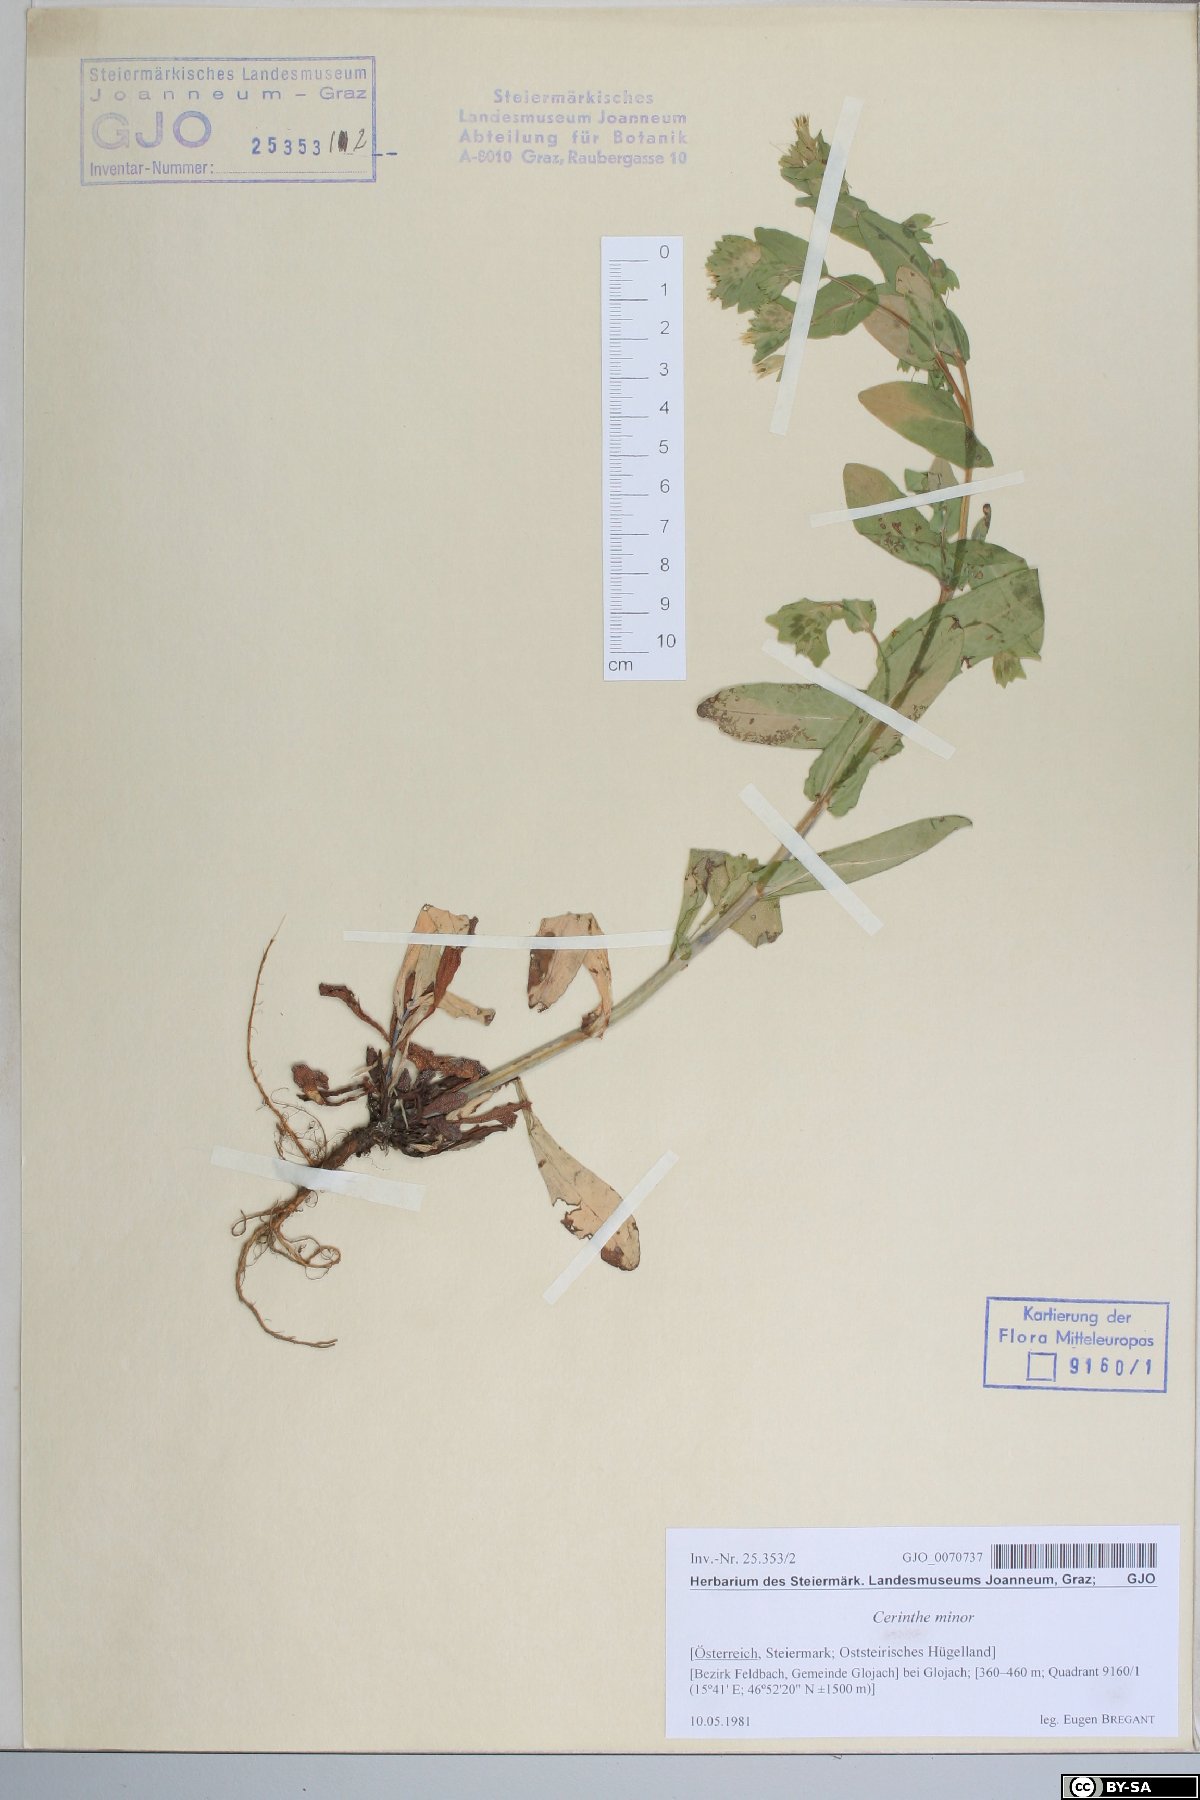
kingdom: Plantae
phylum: Tracheophyta
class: Magnoliopsida
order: Boraginales
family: Boraginaceae
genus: Cerinthe
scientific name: Cerinthe minor
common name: Lesser honeywort
